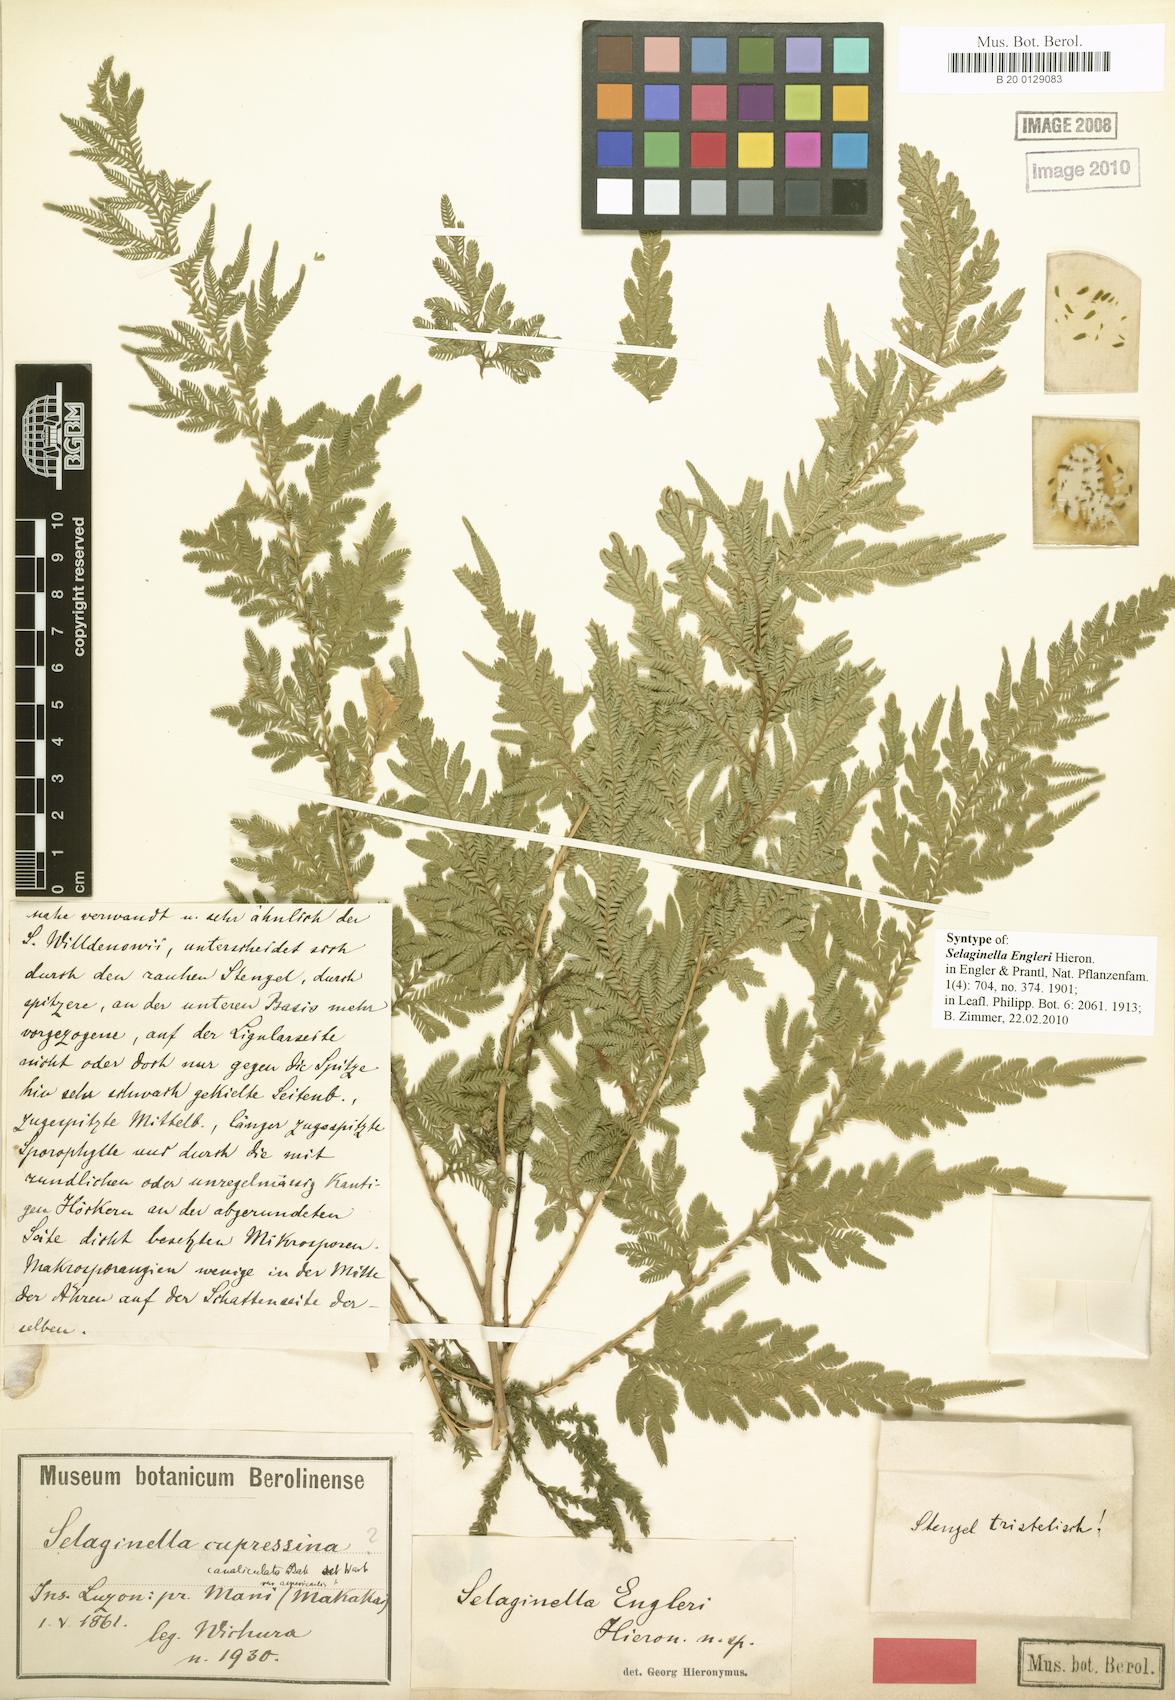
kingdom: Plantae
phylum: Tracheophyta
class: Lycopodiopsida
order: Selaginellales
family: Selaginellaceae
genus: Selaginella
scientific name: Selaginella engleri
